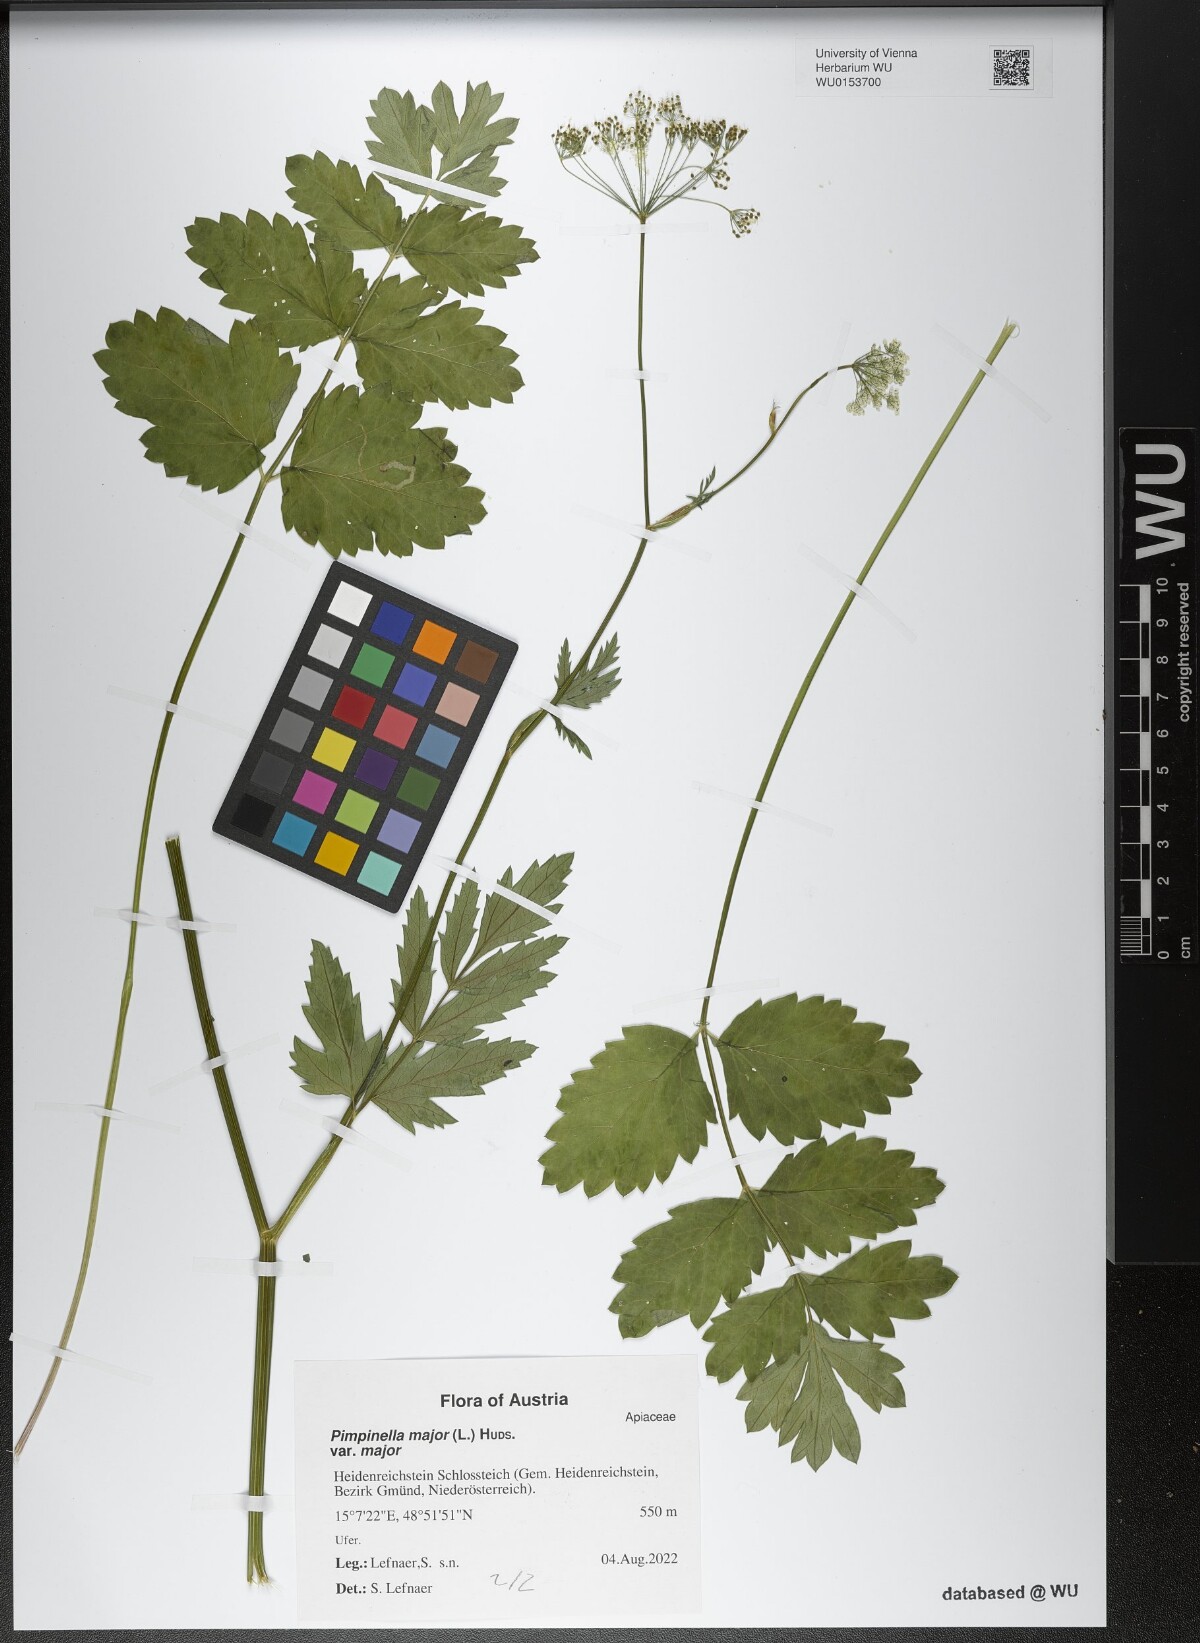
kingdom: Plantae
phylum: Tracheophyta
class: Magnoliopsida
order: Apiales
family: Apiaceae
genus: Pimpinella
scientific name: Pimpinella major
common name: Greater burnet-saxifrage
